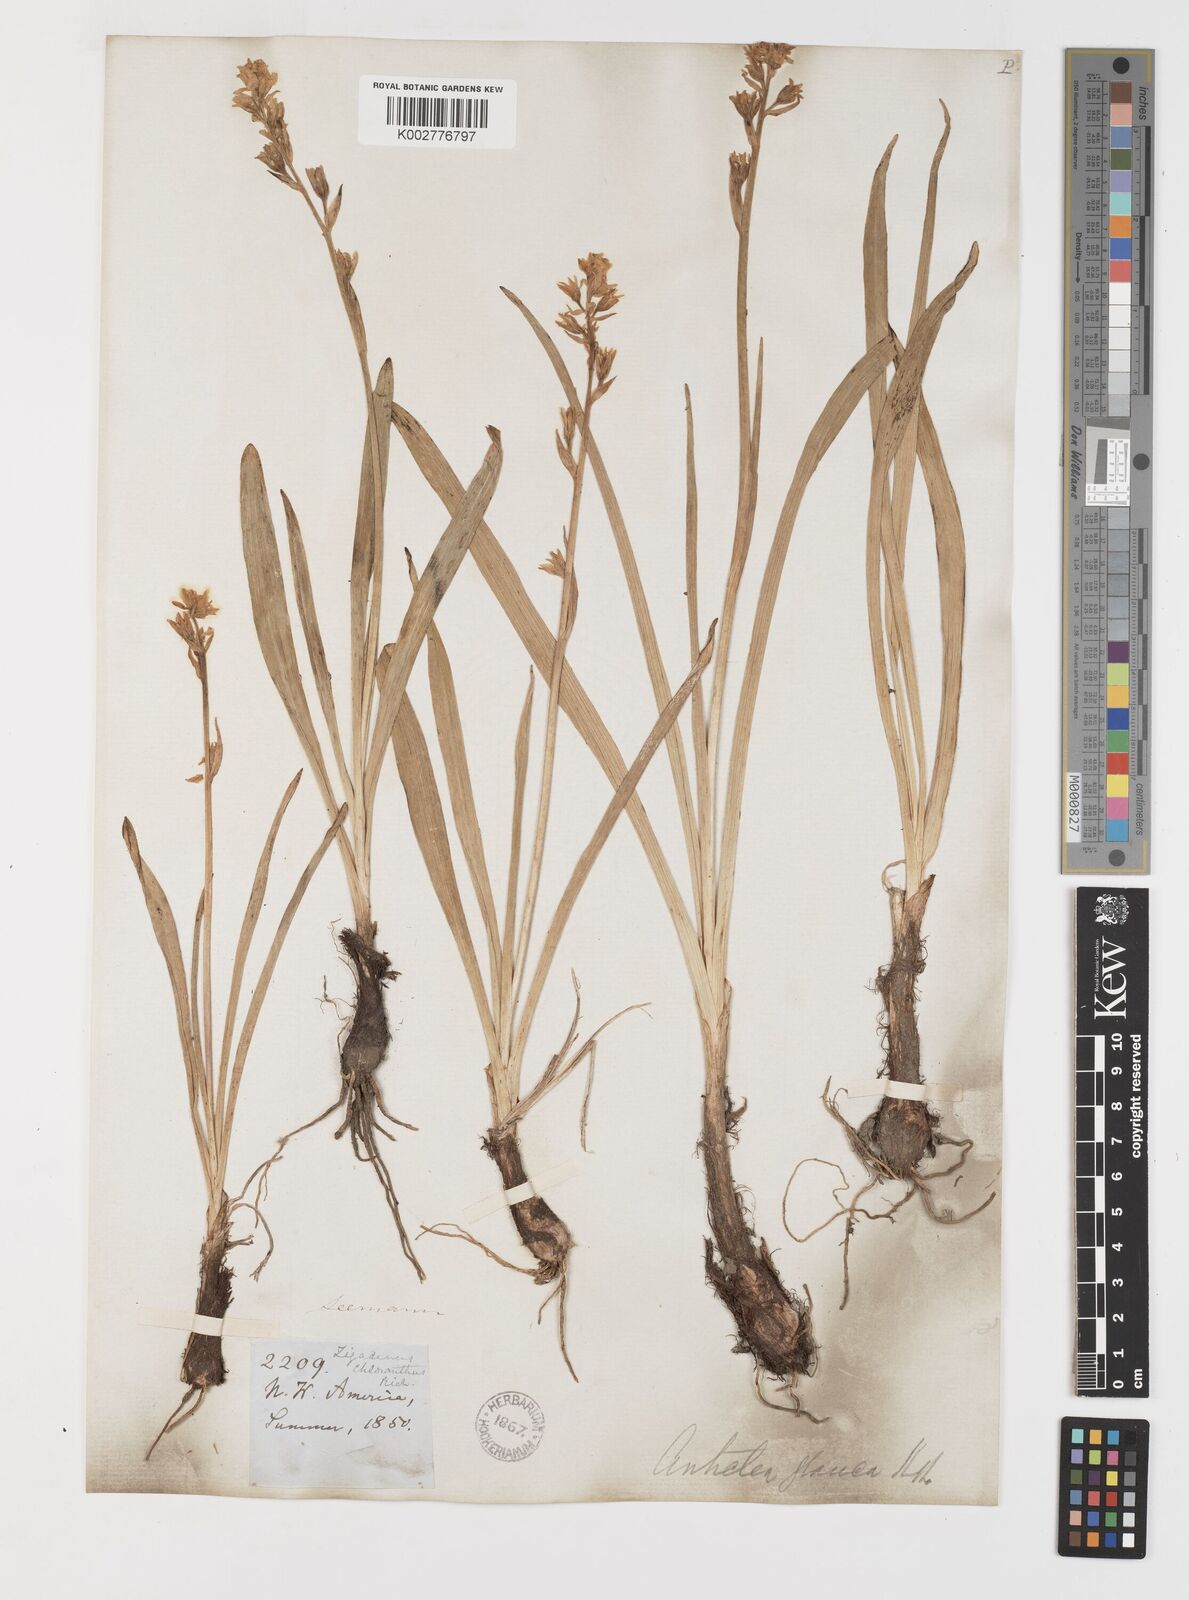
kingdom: Plantae
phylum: Tracheophyta
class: Liliopsida
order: Liliales
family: Melanthiaceae
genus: Anticlea
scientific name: Anticlea elegans
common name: Mountain death camas
